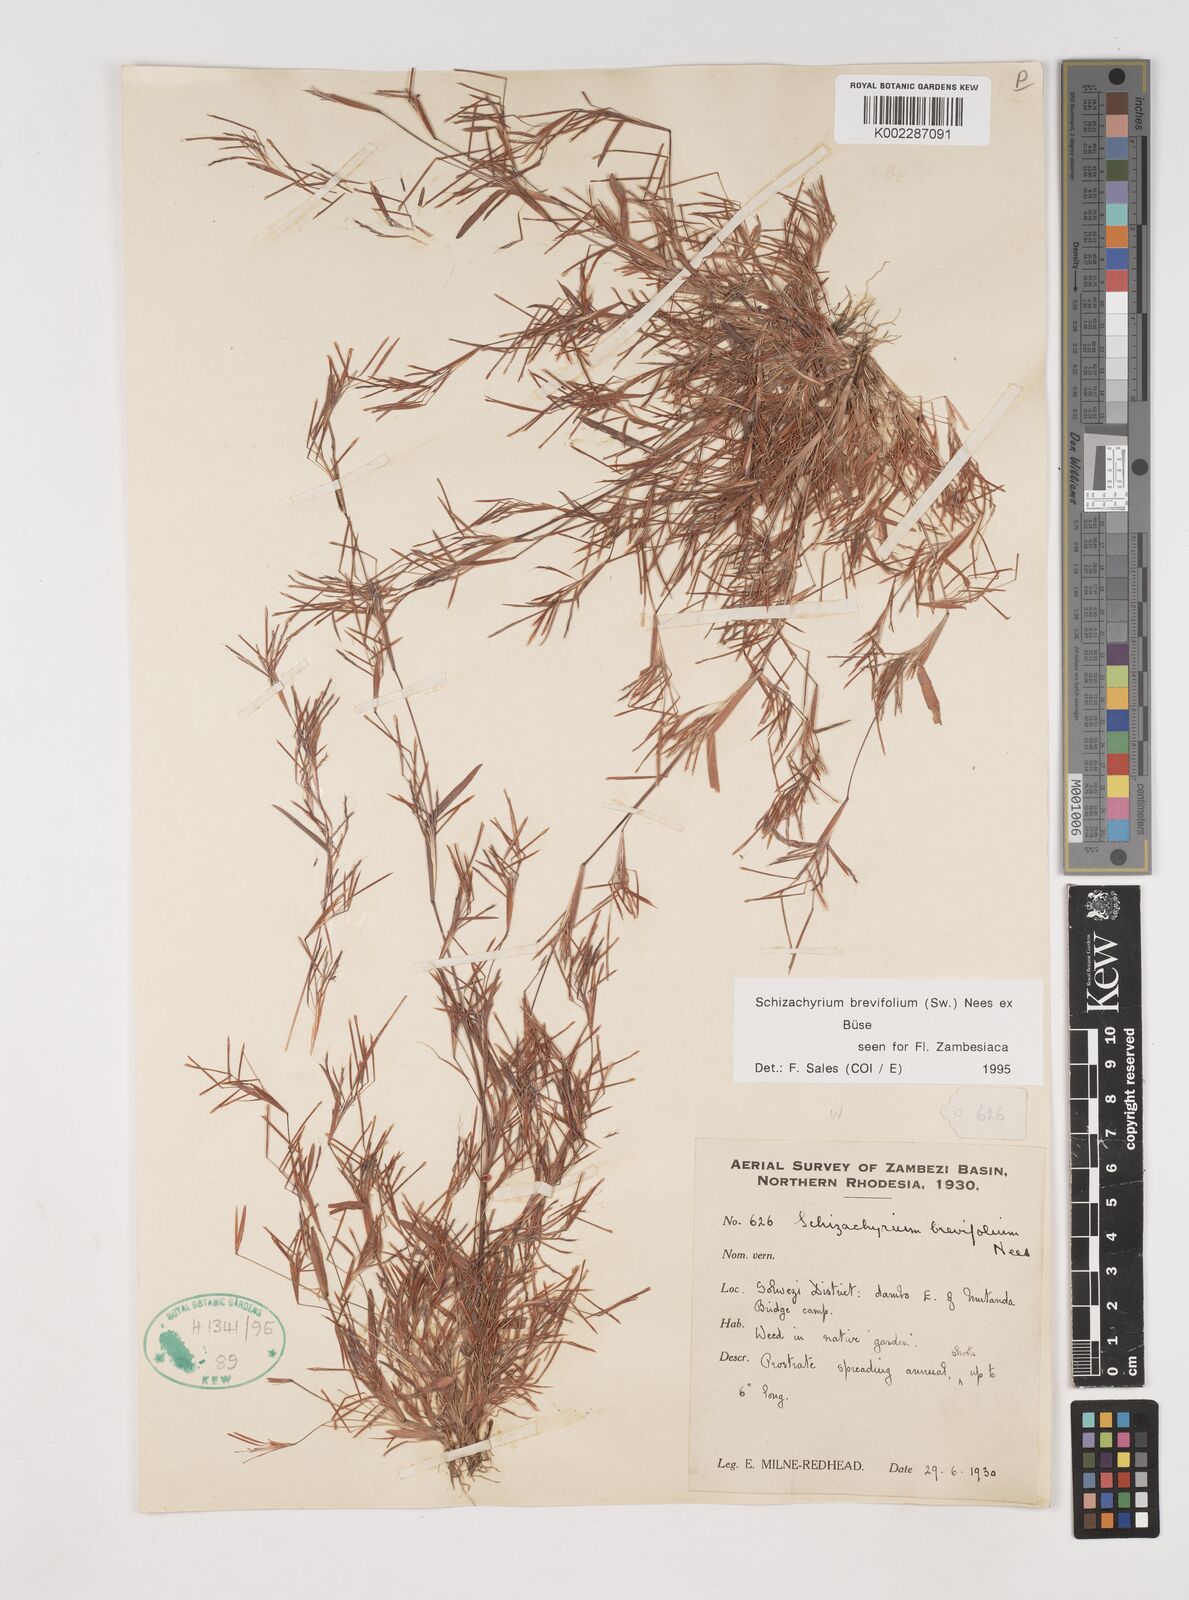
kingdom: Plantae
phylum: Tracheophyta
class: Liliopsida
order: Poales
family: Poaceae
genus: Schizachyrium
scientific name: Schizachyrium brevifolium
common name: Serillo dulce
